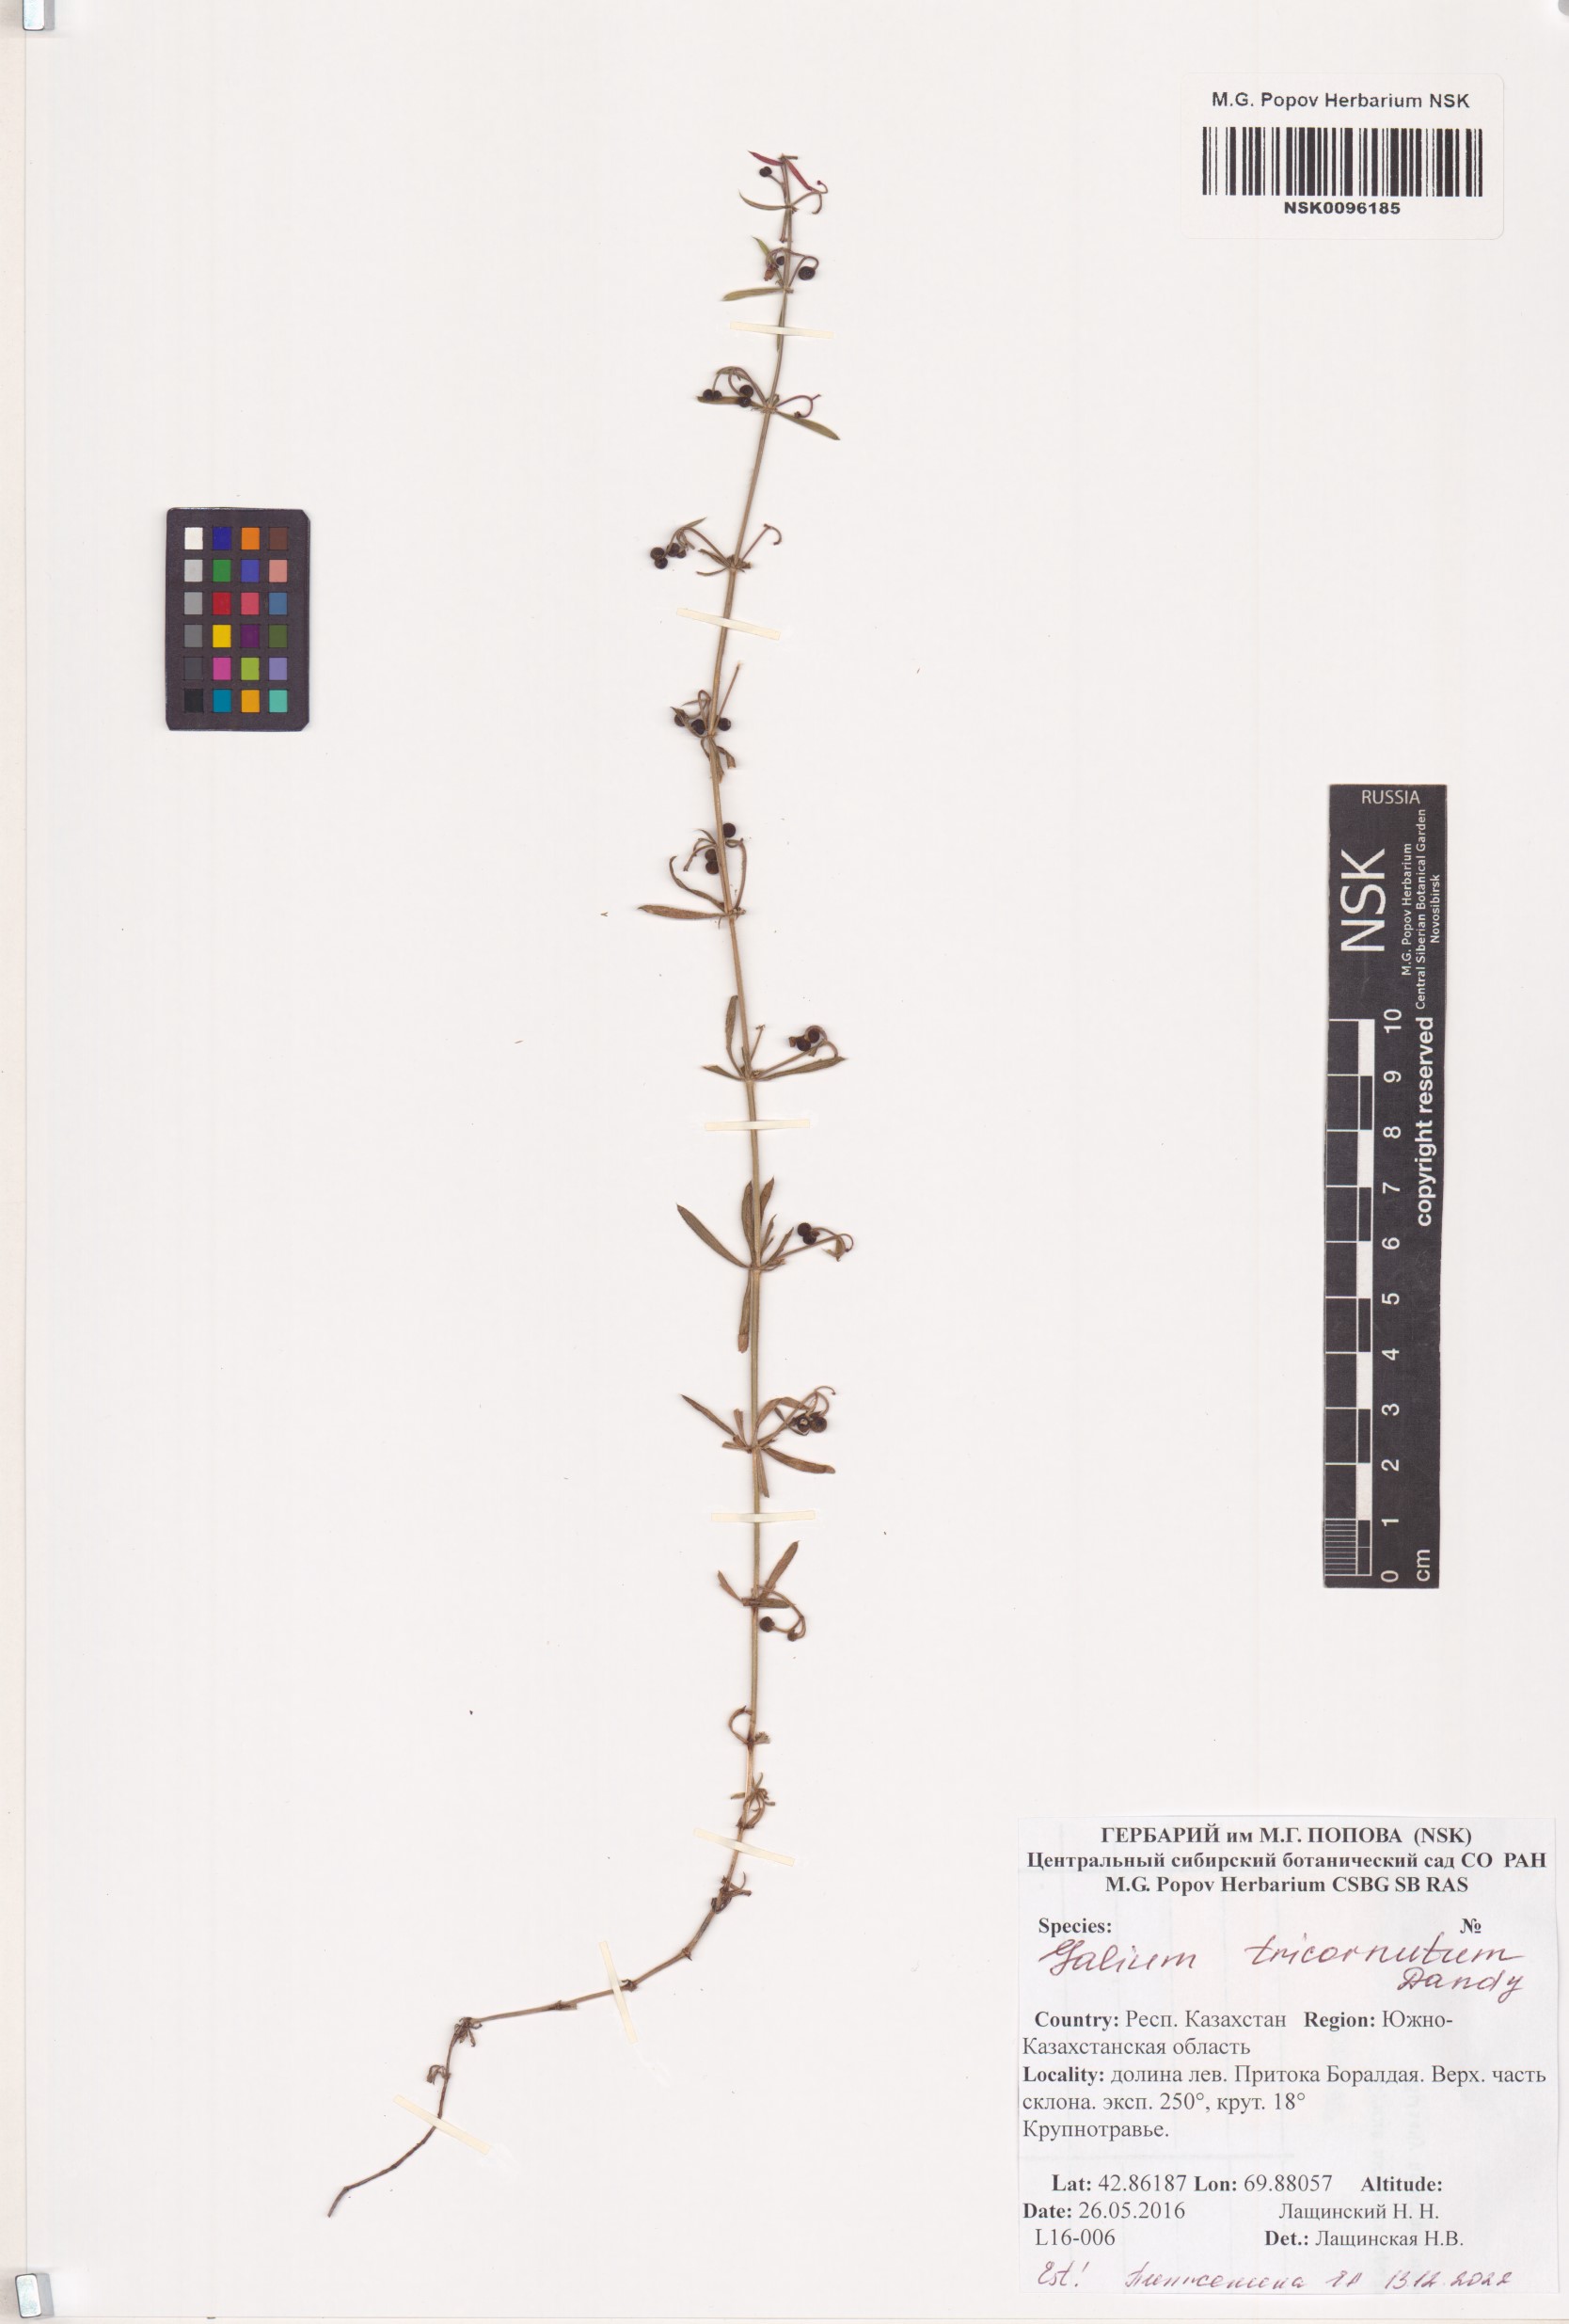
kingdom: Plantae
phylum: Tracheophyta
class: Magnoliopsida
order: Gentianales
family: Rubiaceae
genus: Galium
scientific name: Galium tricornutum
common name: Corn cleavers
